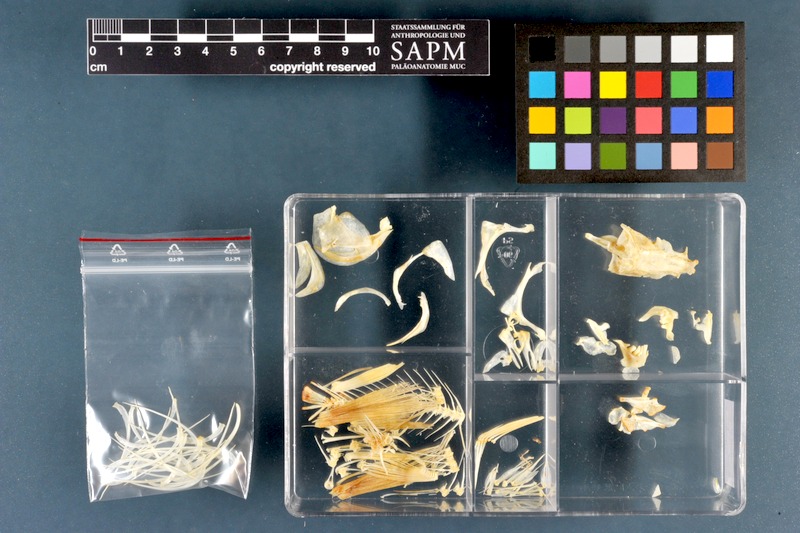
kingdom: Animalia
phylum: Chordata
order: Cypriniformes
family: Cyprinidae
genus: Rutilus
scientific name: Rutilus rutilus
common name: Roach
